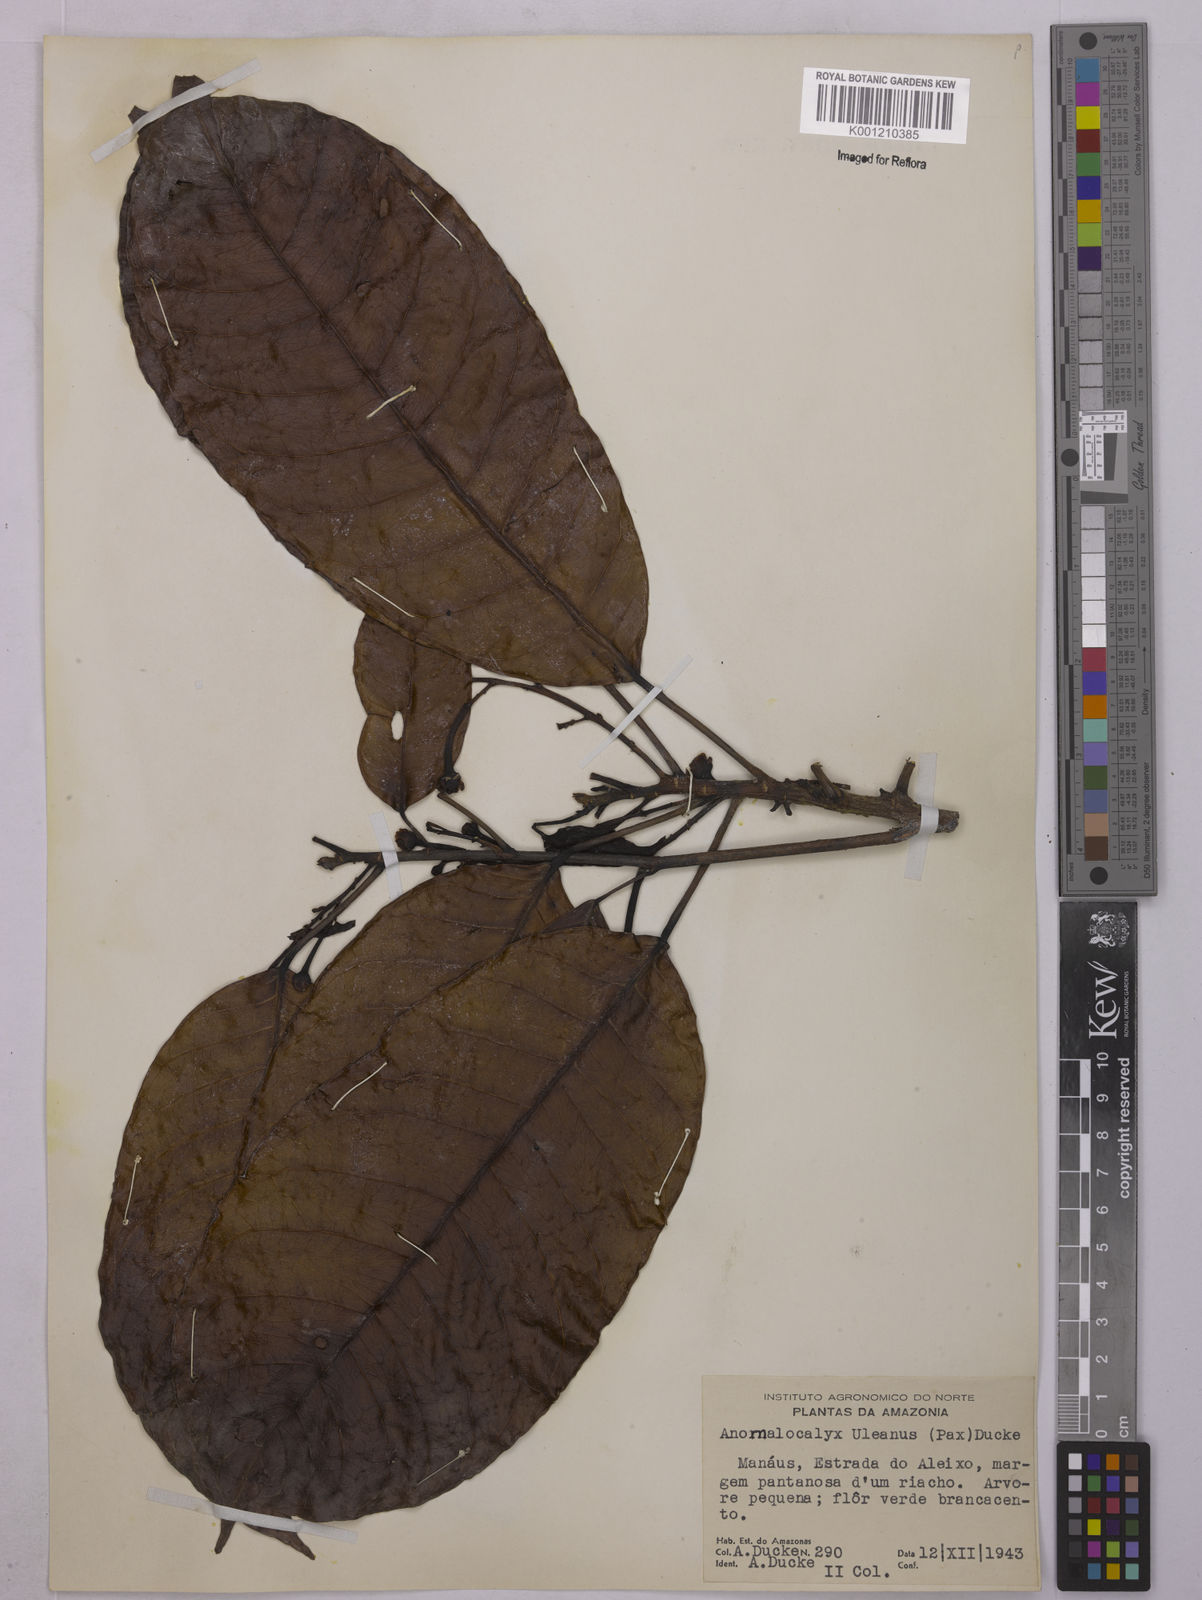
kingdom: Plantae
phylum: Tracheophyta
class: Magnoliopsida
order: Malpighiales
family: Euphorbiaceae
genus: Dodecastigma
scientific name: Dodecastigma uleanum
